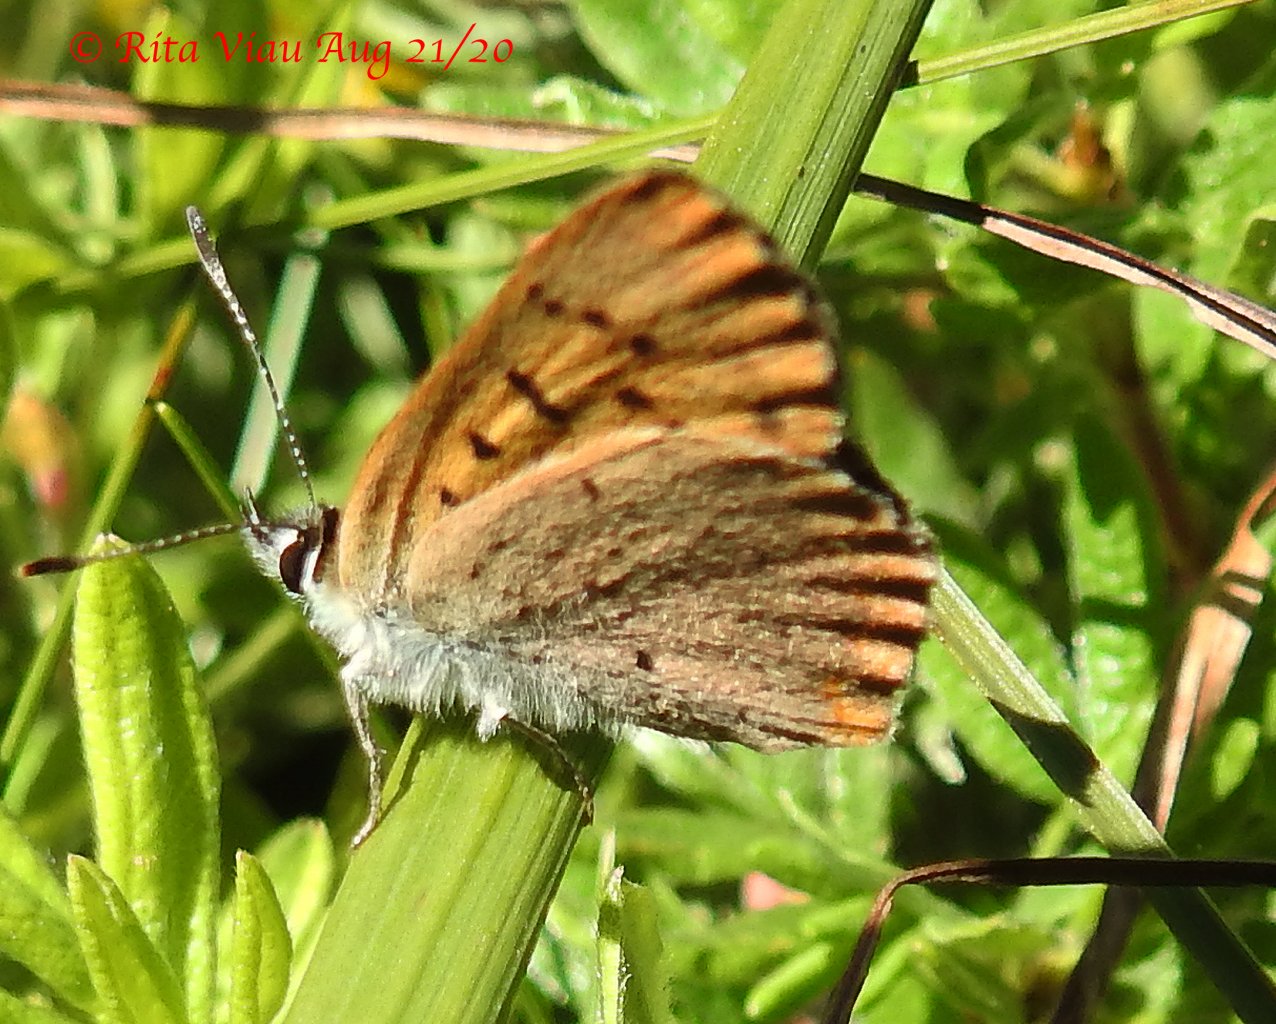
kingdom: Animalia
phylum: Arthropoda
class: Insecta
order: Lepidoptera
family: Lycaenidae
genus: Epidemia
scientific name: Epidemia dorcas
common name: Dorcas Copper
